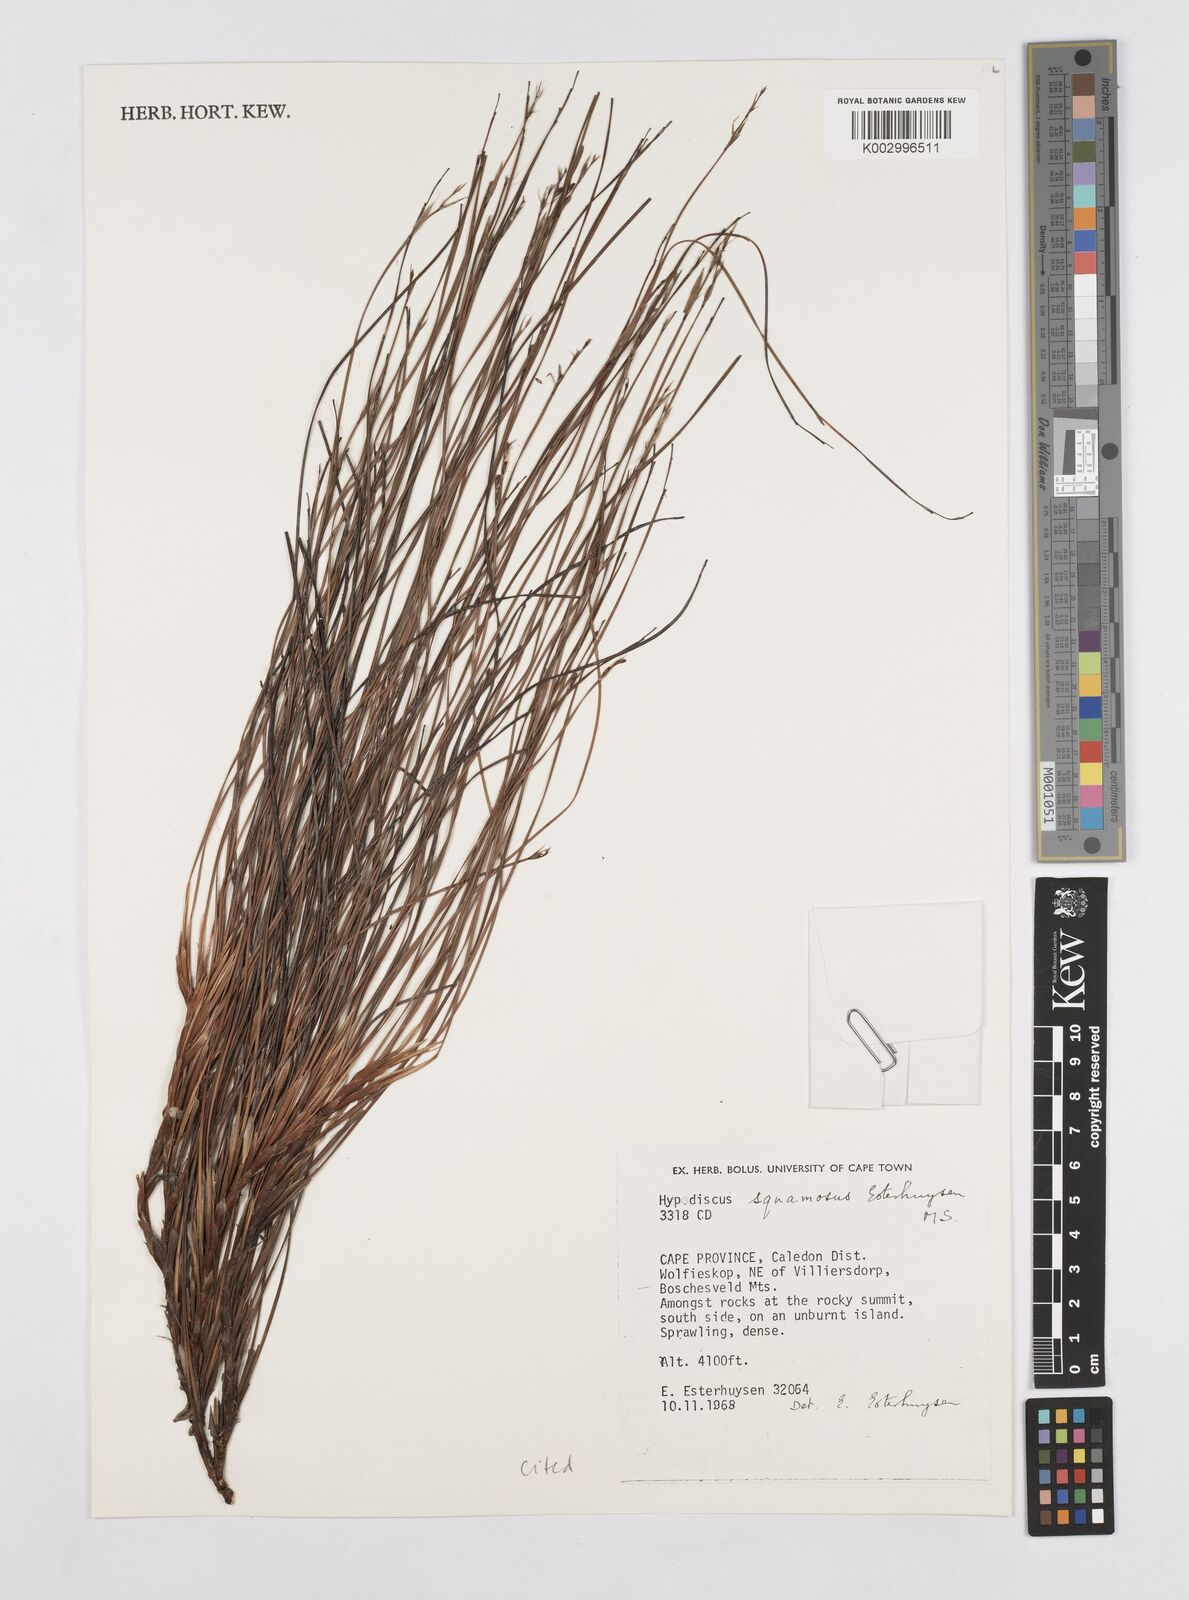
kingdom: Plantae
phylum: Tracheophyta
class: Liliopsida
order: Poales
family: Restionaceae
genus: Hypodiscus
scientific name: Hypodiscus squamosus
